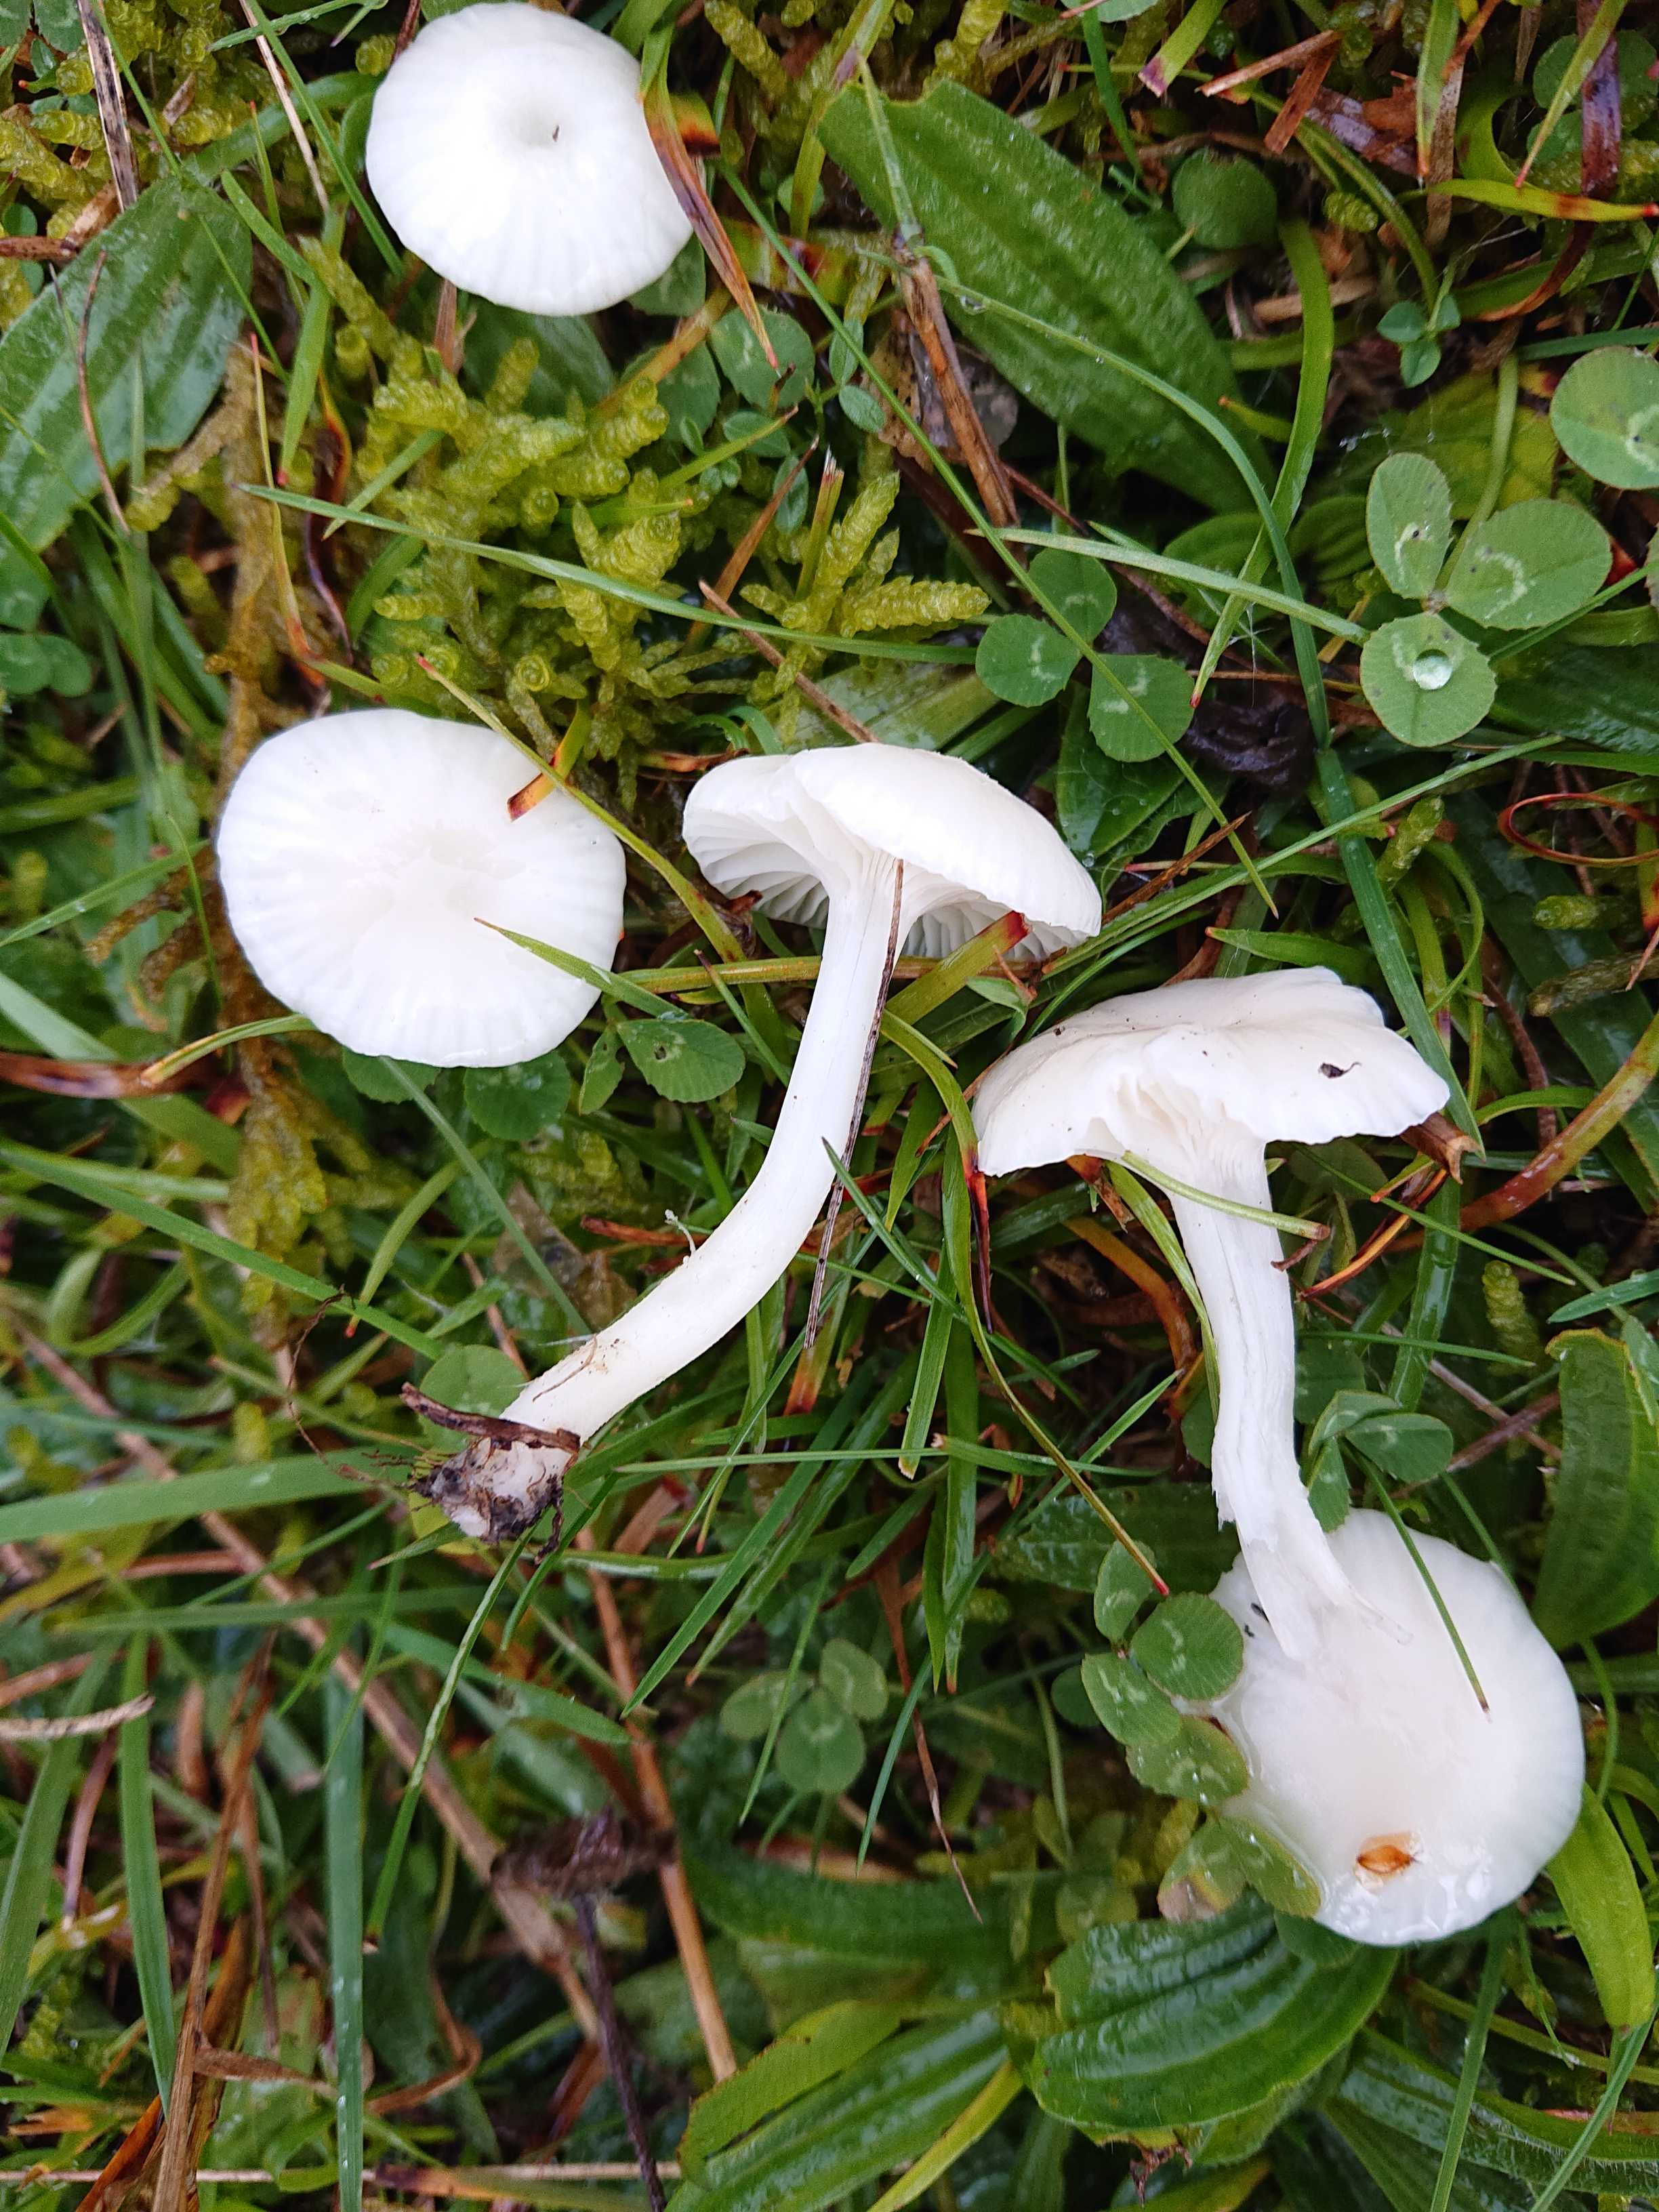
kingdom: Fungi
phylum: Basidiomycota
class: Agaricomycetes
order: Agaricales
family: Hygrophoraceae
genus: Cuphophyllus
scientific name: Cuphophyllus virgineus
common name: snehvid vokshat
